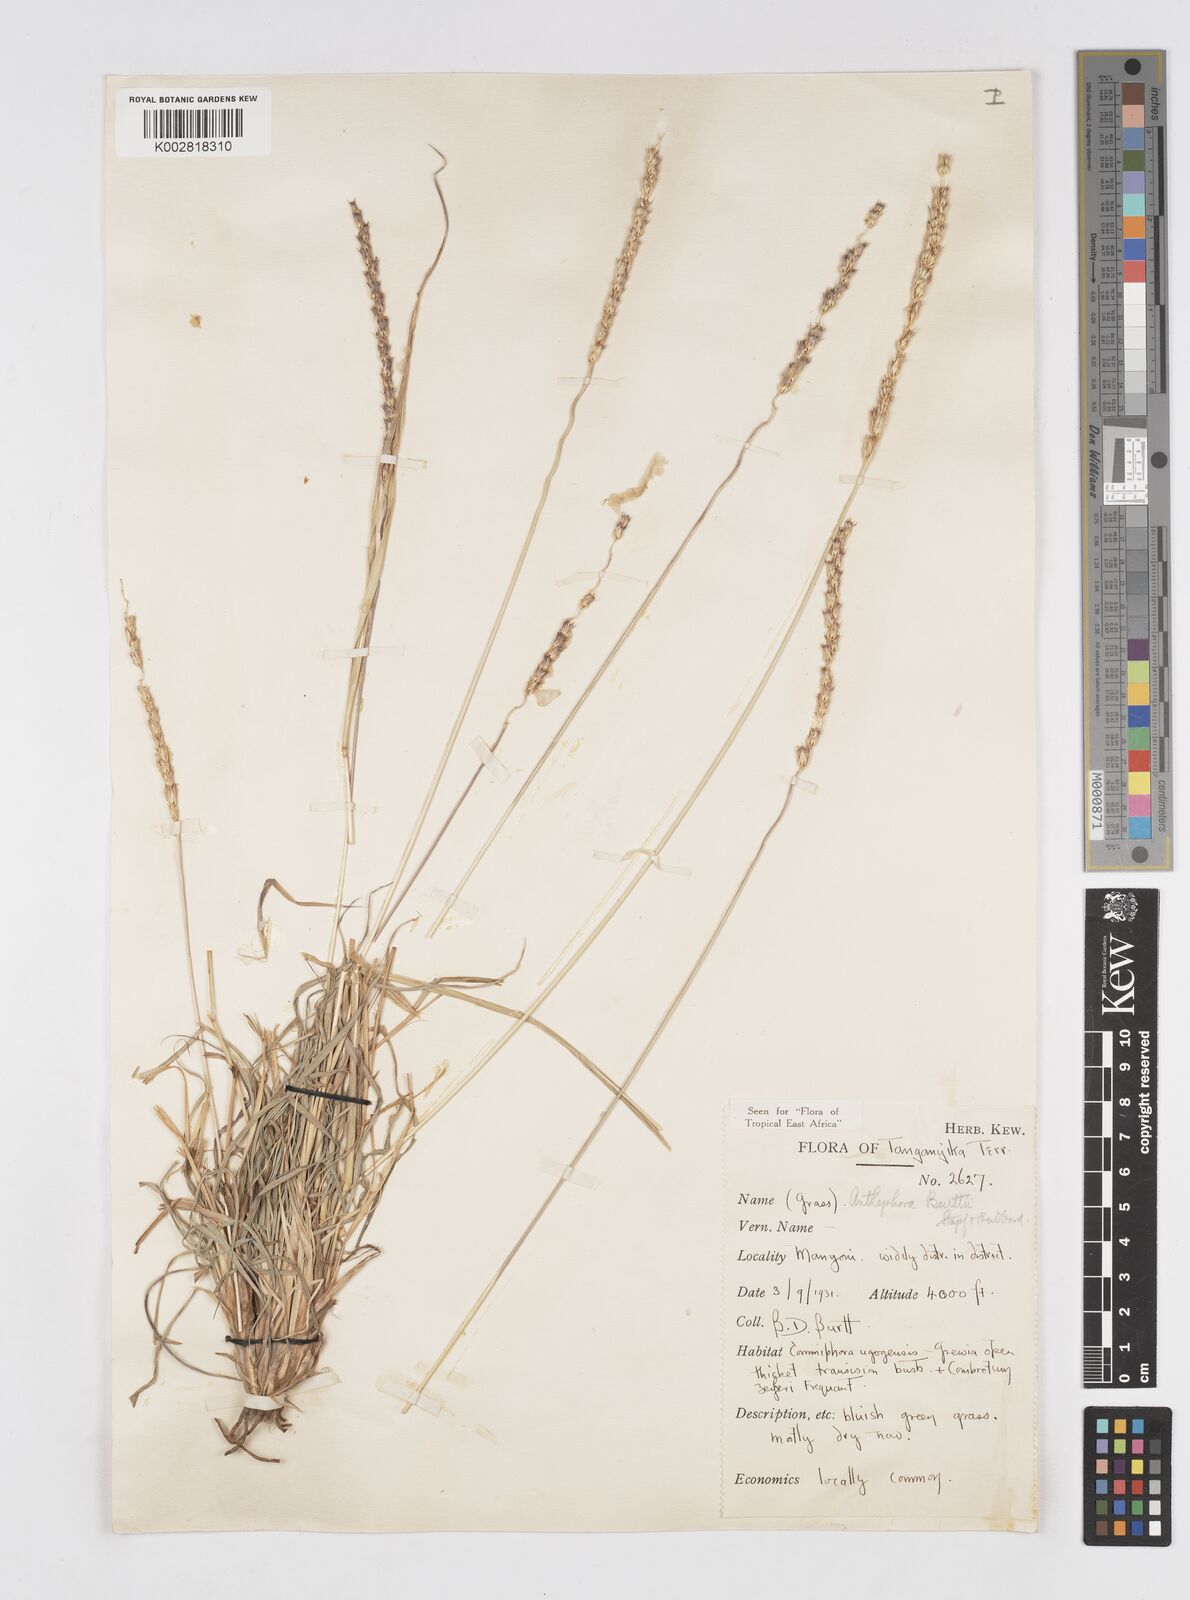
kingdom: Plantae
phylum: Tracheophyta
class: Liliopsida
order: Poales
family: Poaceae
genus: Anthephora
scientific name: Anthephora elongata
